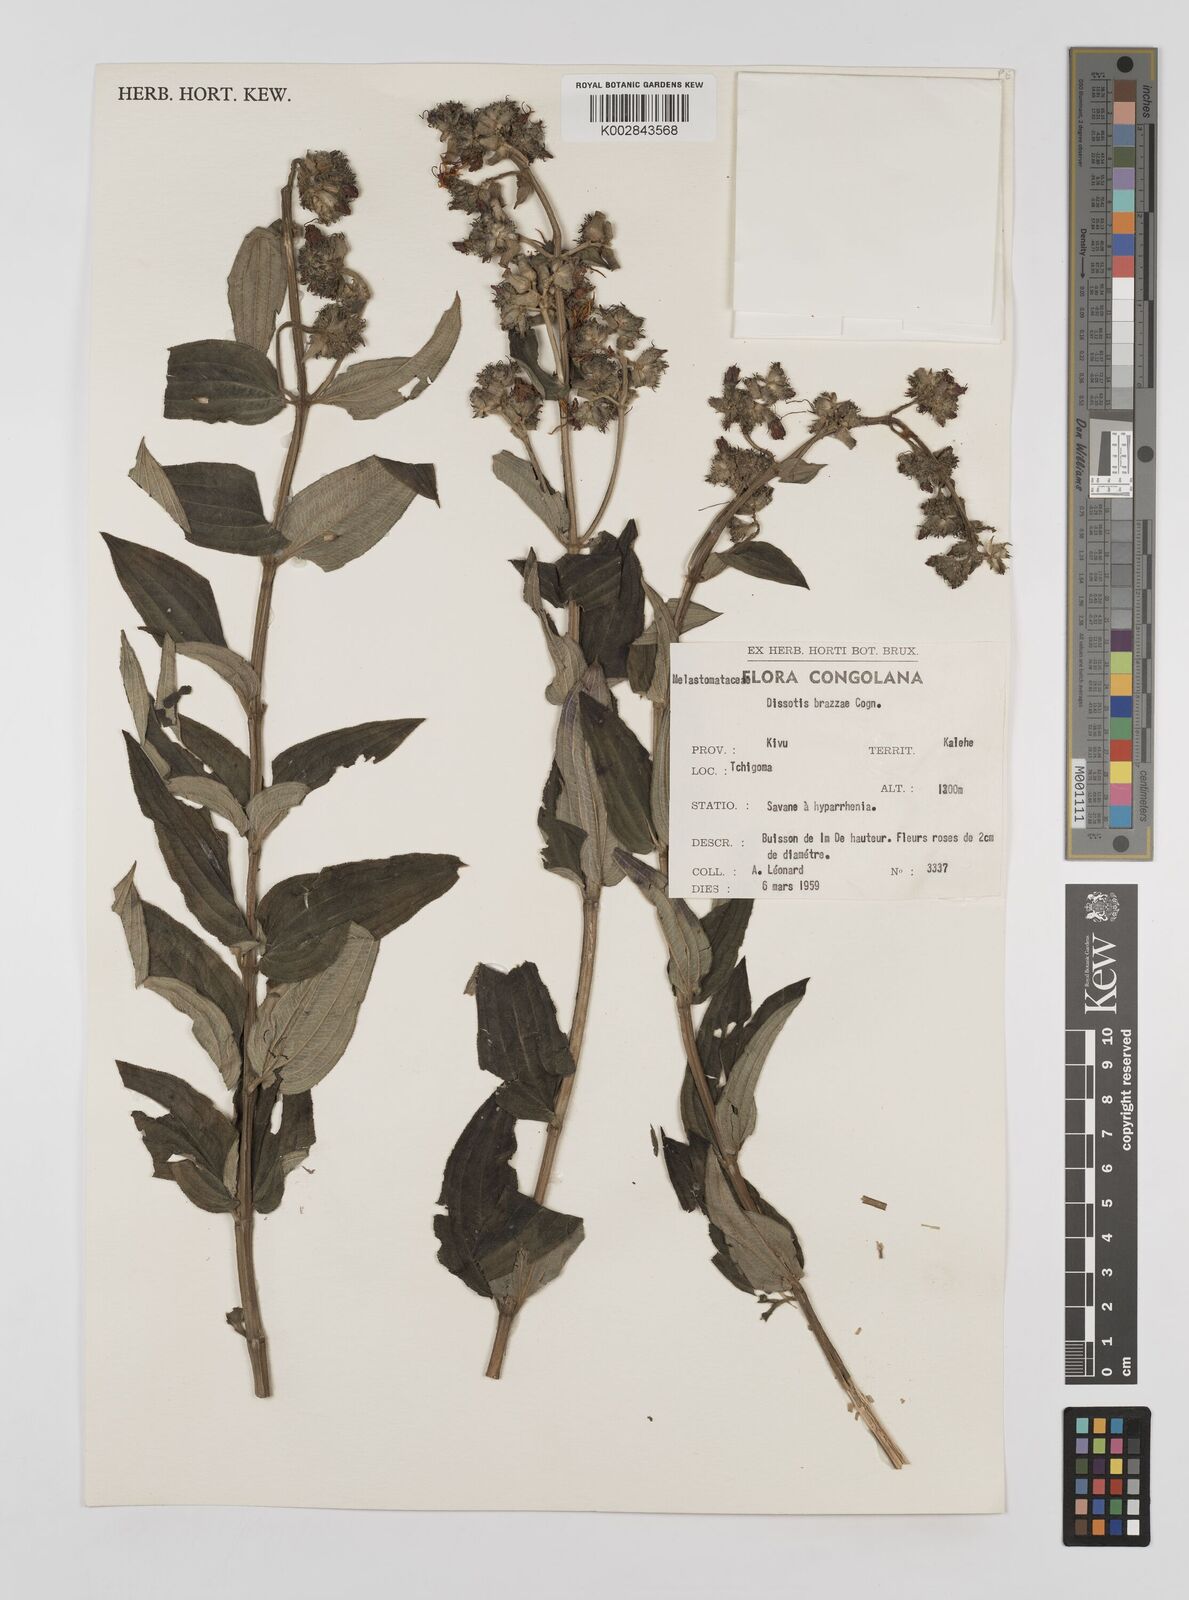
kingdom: Plantae
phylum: Tracheophyta
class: Magnoliopsida
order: Myrtales
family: Melastomataceae
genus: Dupineta
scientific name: Dupineta brazzae
